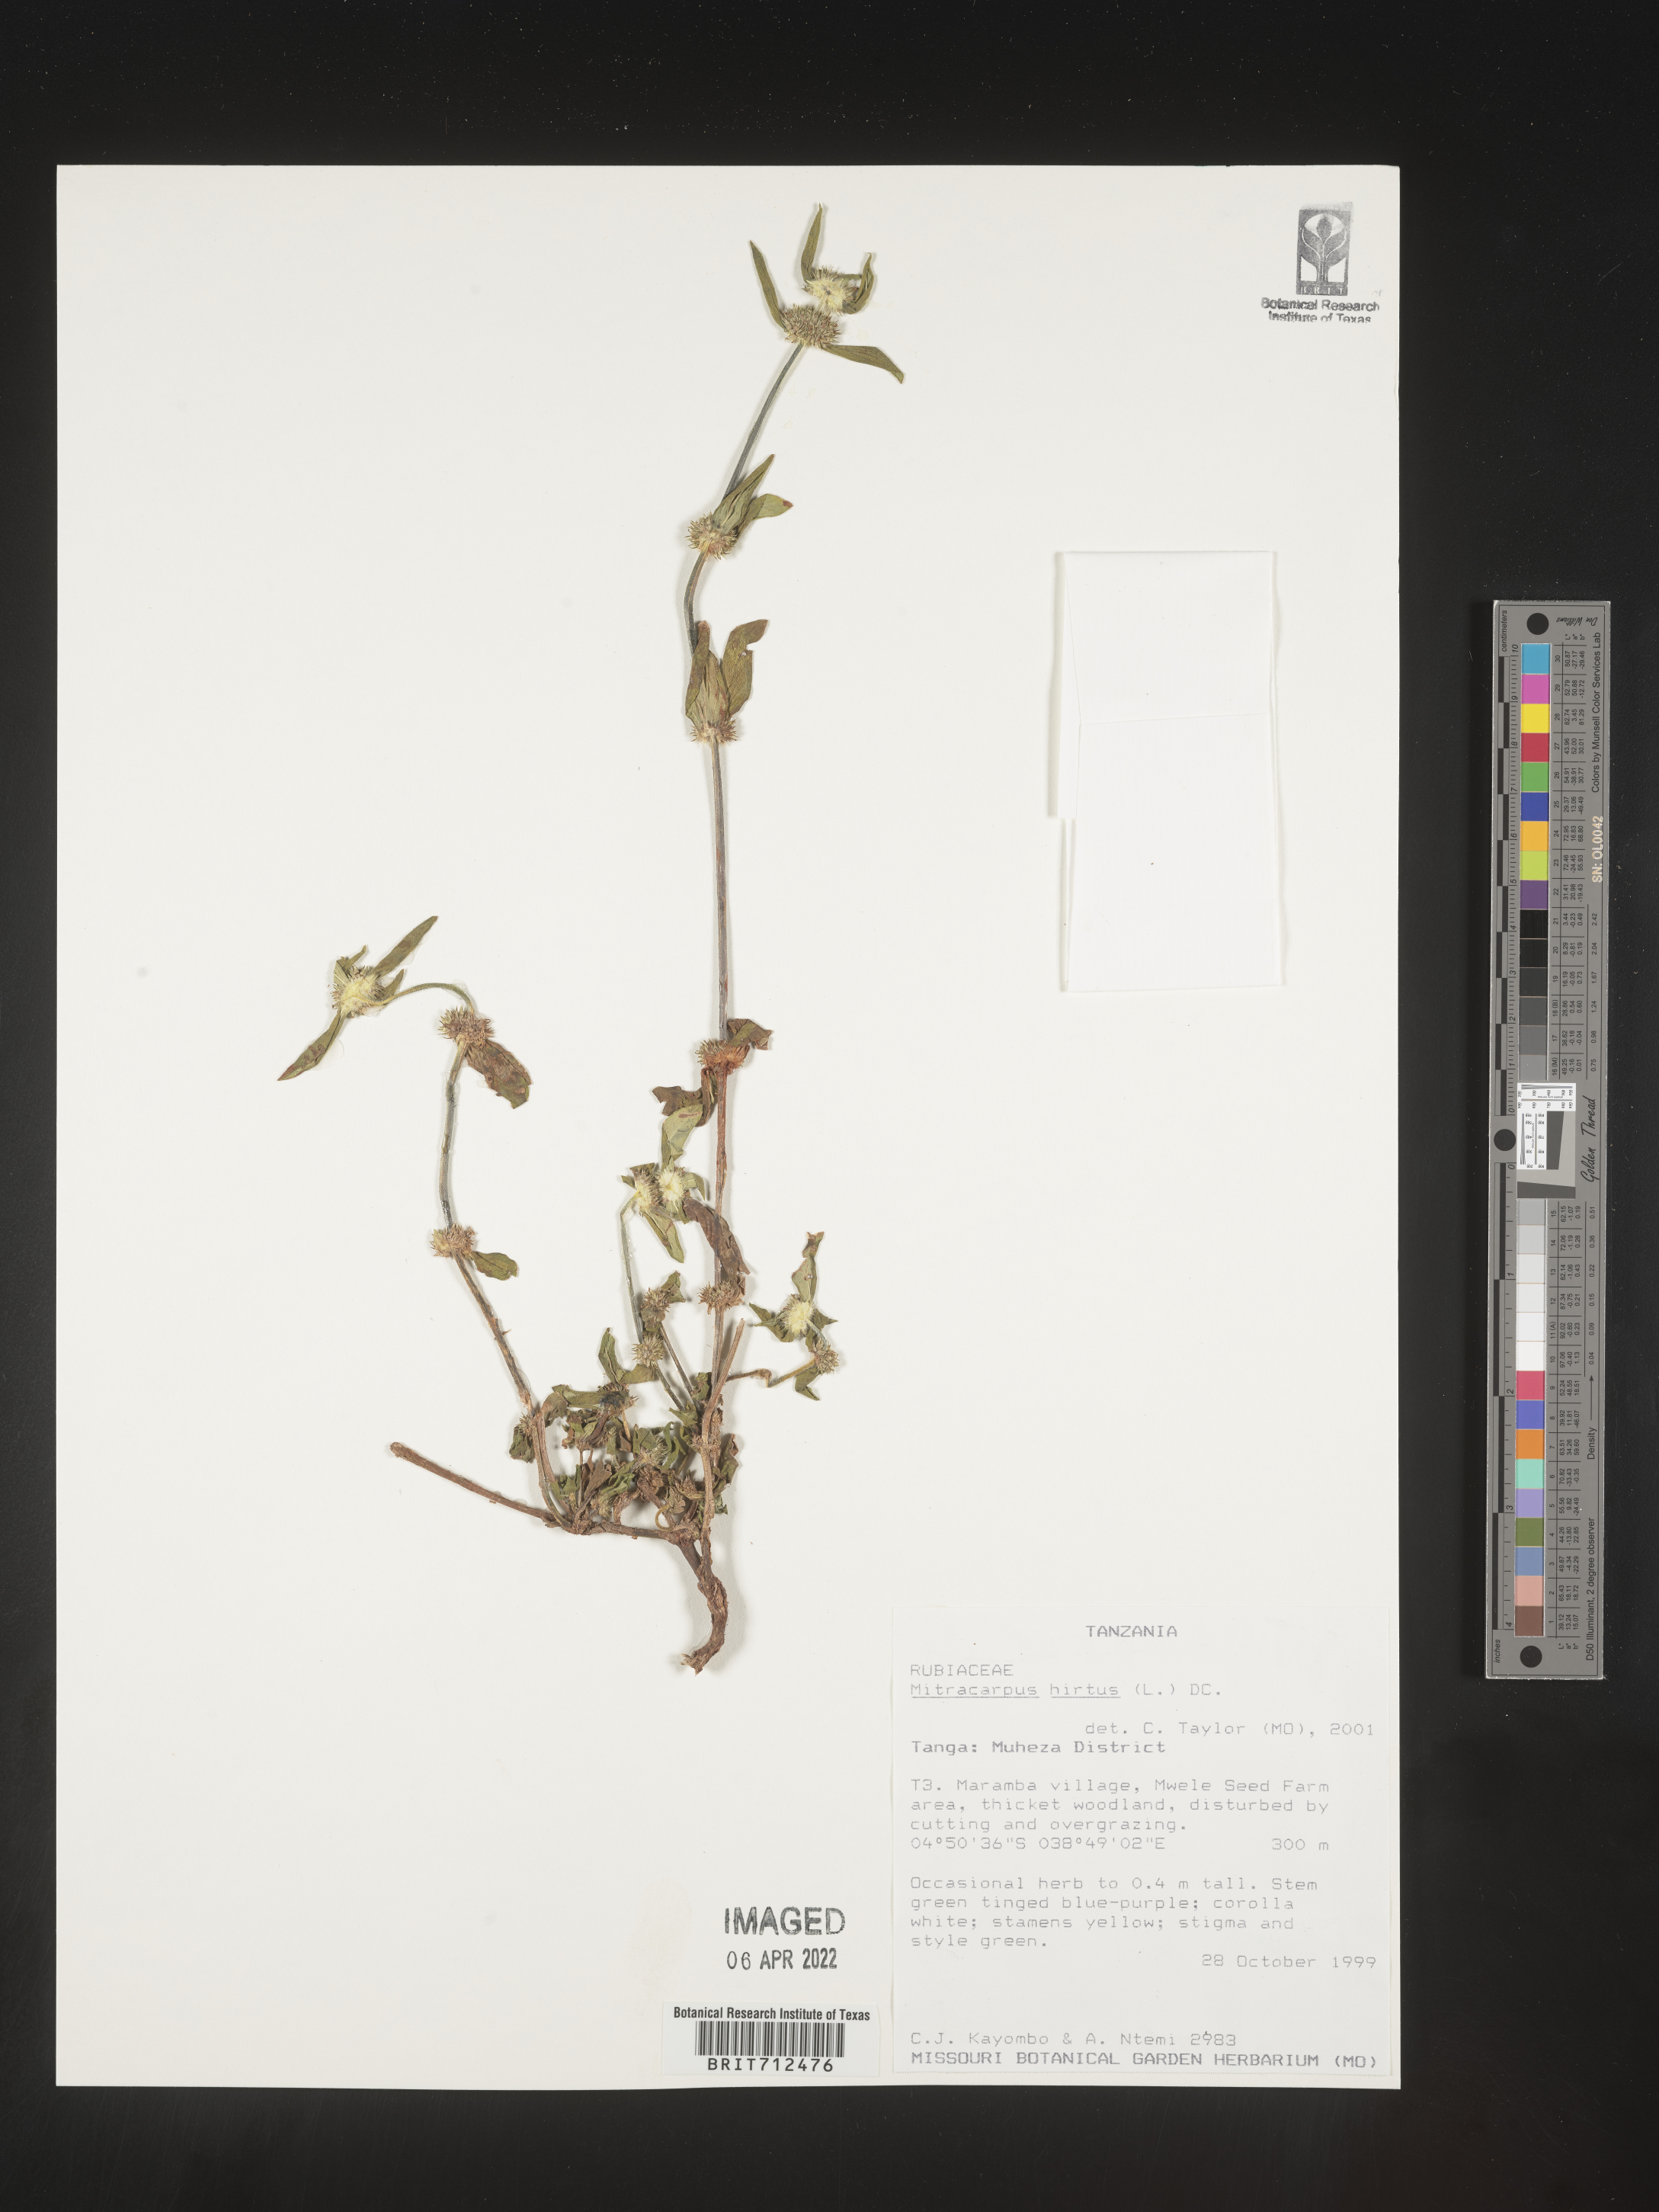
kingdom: Plantae
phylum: Tracheophyta
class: Magnoliopsida
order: Gentianales
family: Rubiaceae
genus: Mitracarpus
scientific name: Mitracarpus
